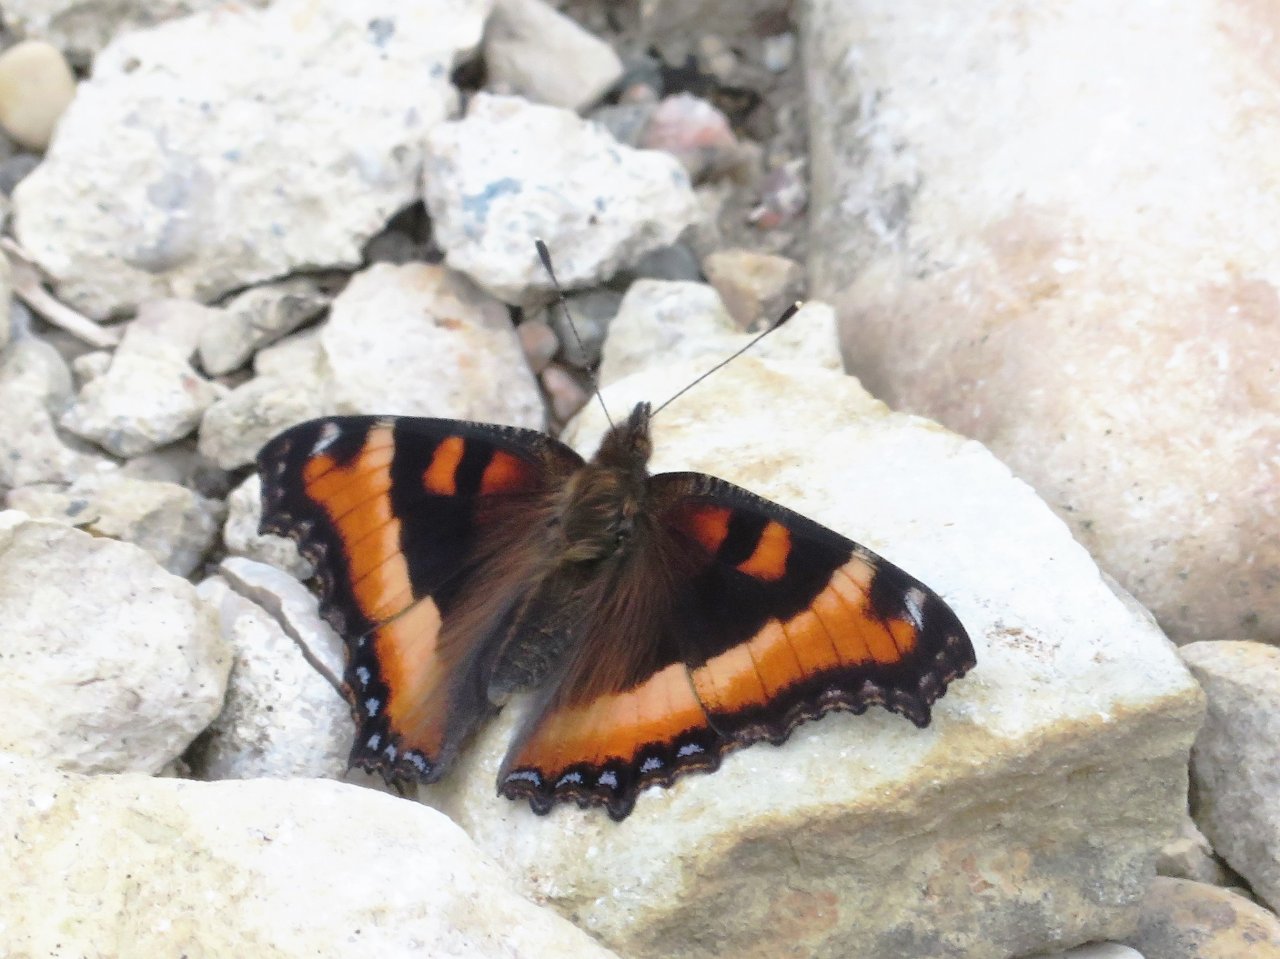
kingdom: Animalia
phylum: Arthropoda
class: Insecta
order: Lepidoptera
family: Nymphalidae
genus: Aglais
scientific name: Aglais milberti
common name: Milbert's Tortoiseshell
